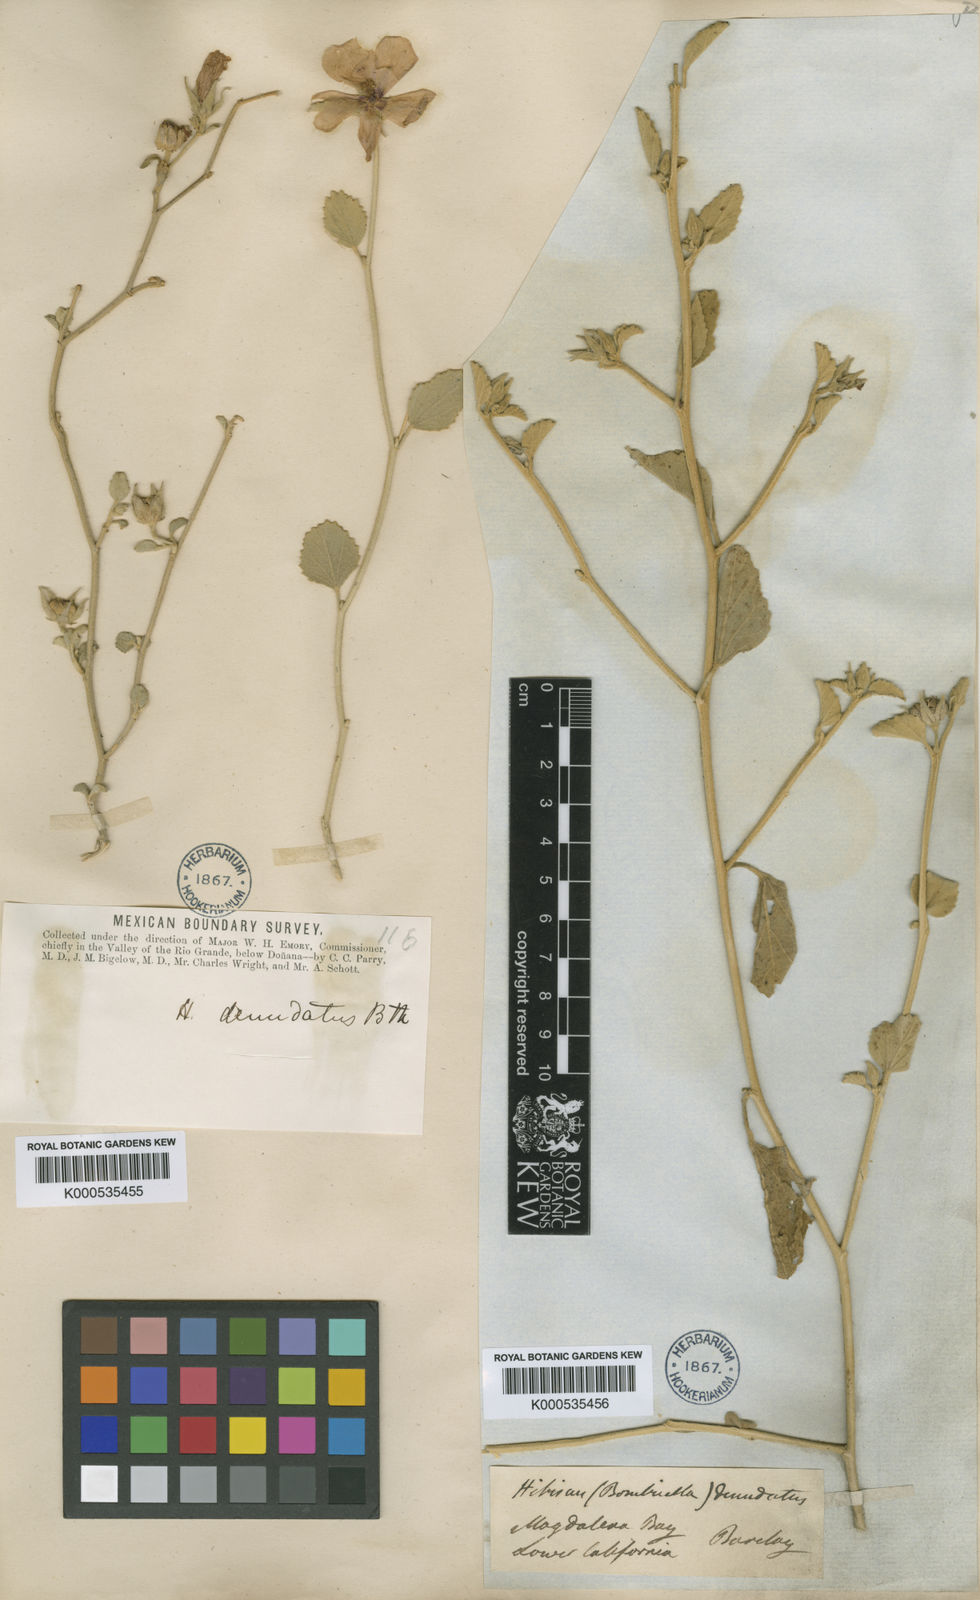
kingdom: Plantae
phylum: Tracheophyta
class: Magnoliopsida
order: Malvales
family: Malvaceae
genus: Hibiscus
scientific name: Hibiscus denudatus
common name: Paleface
